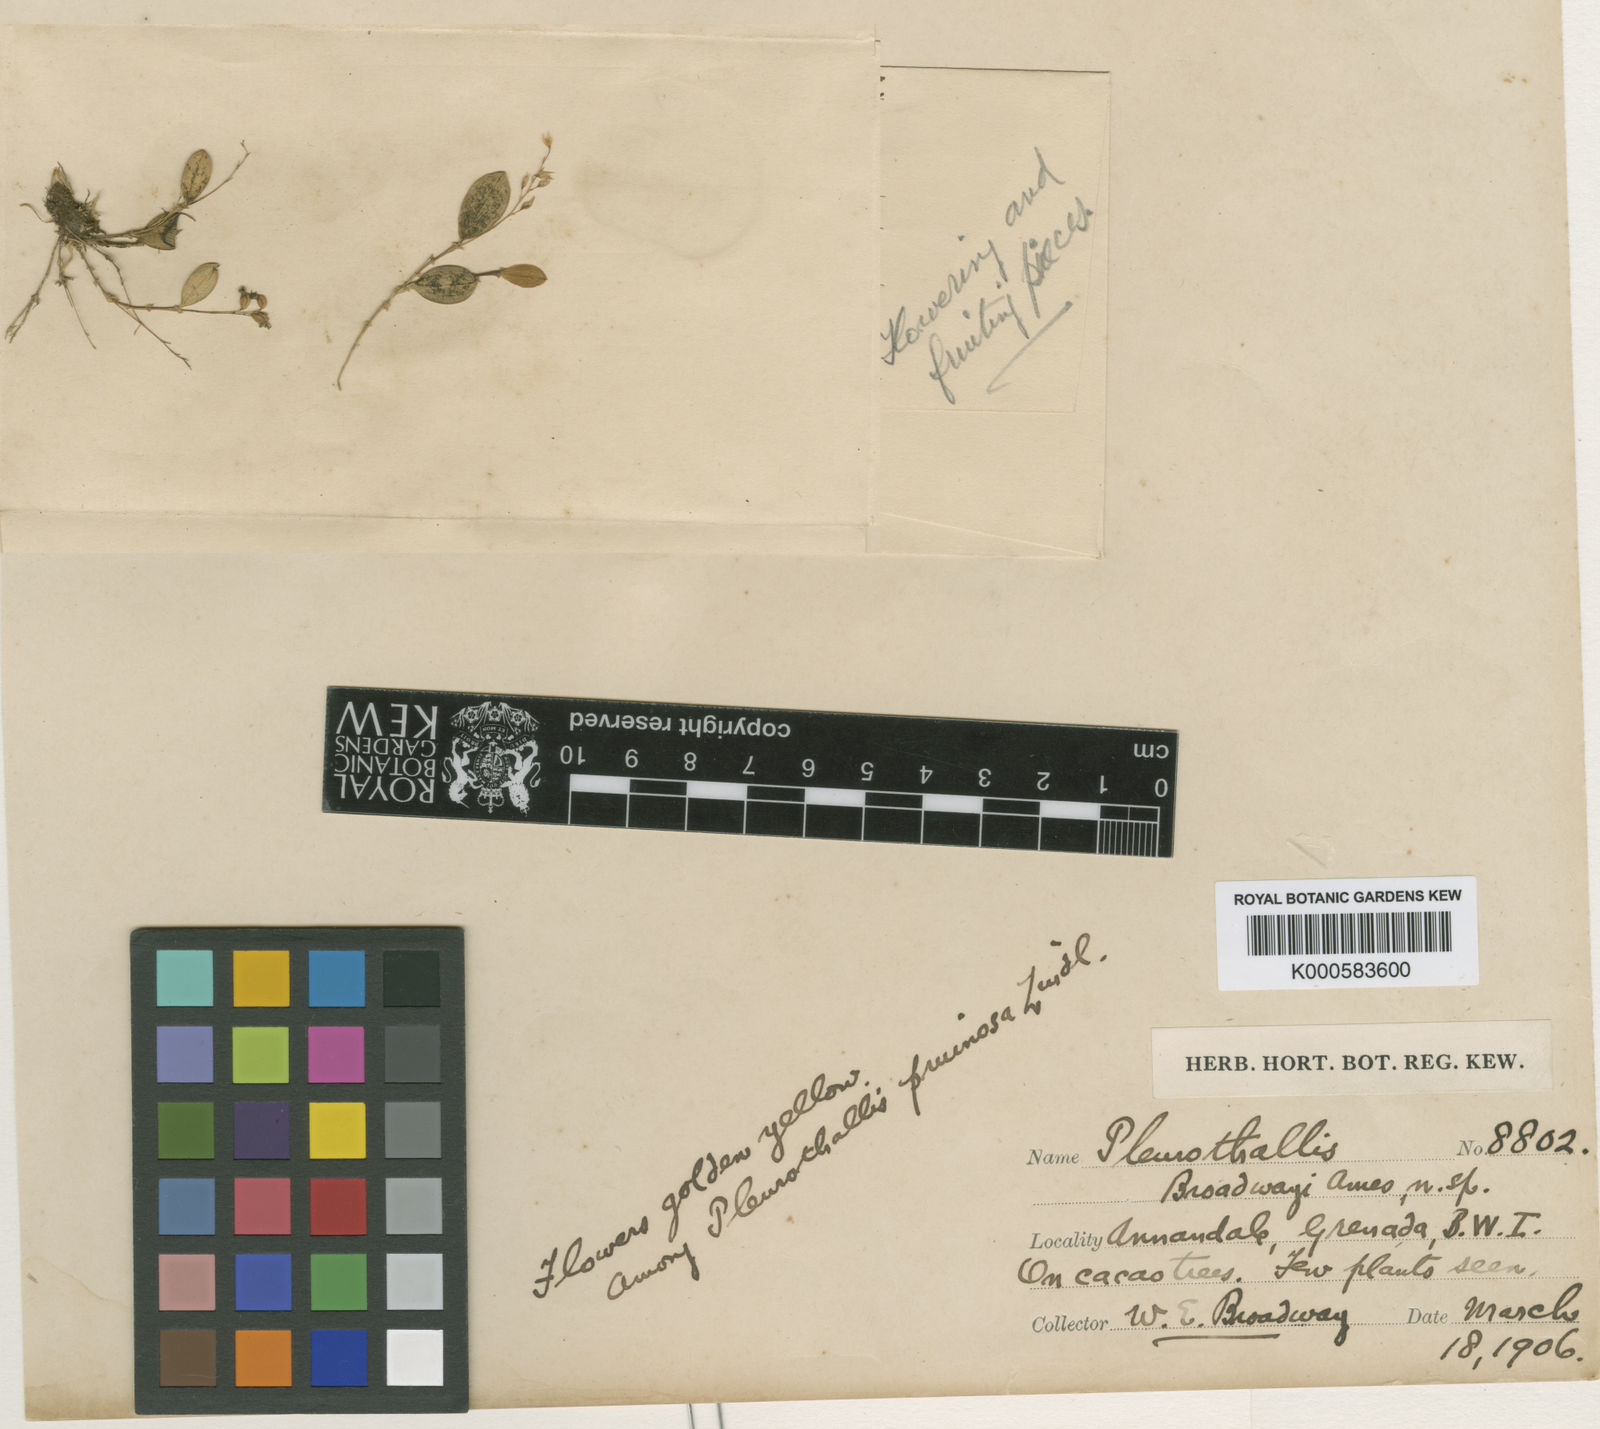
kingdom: Plantae
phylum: Tracheophyta
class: Liliopsida
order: Asparagales
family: Orchidaceae
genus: Trichosalpinx
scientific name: Trichosalpinx dura
